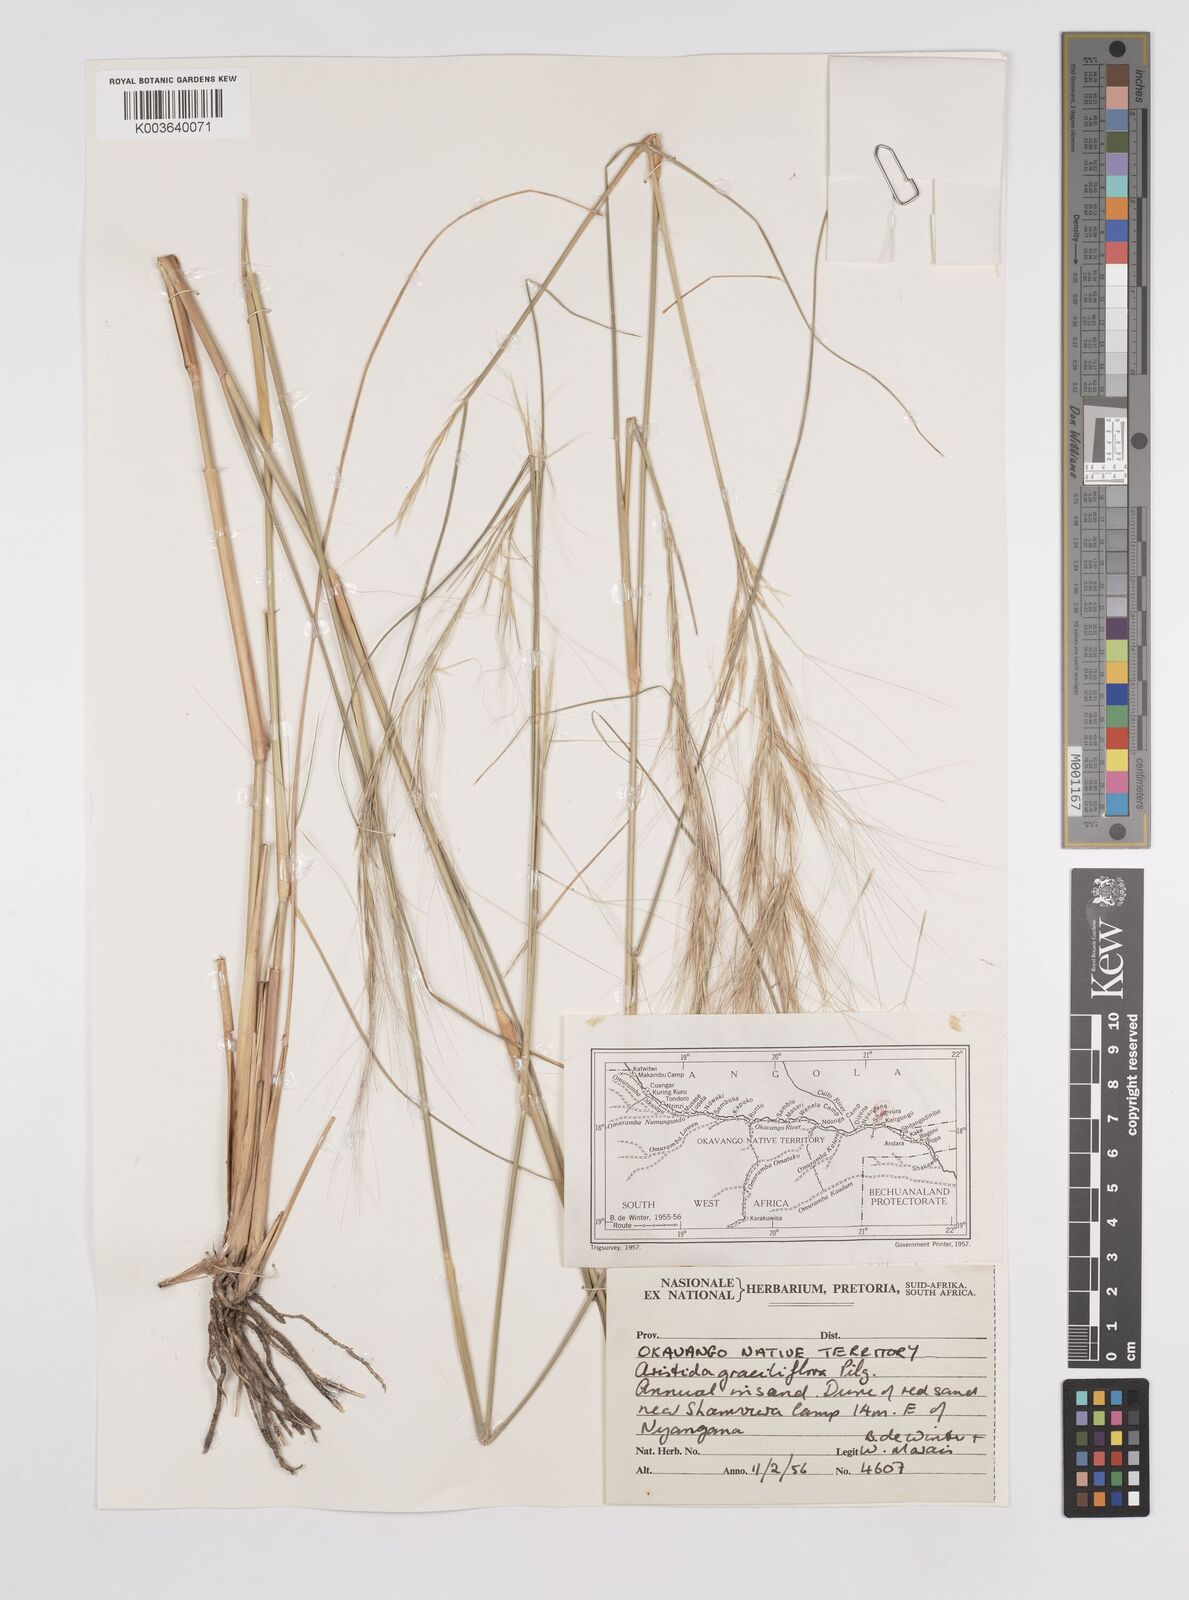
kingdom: Plantae
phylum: Tracheophyta
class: Liliopsida
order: Poales
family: Poaceae
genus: Aristida
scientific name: Aristida stipitata
